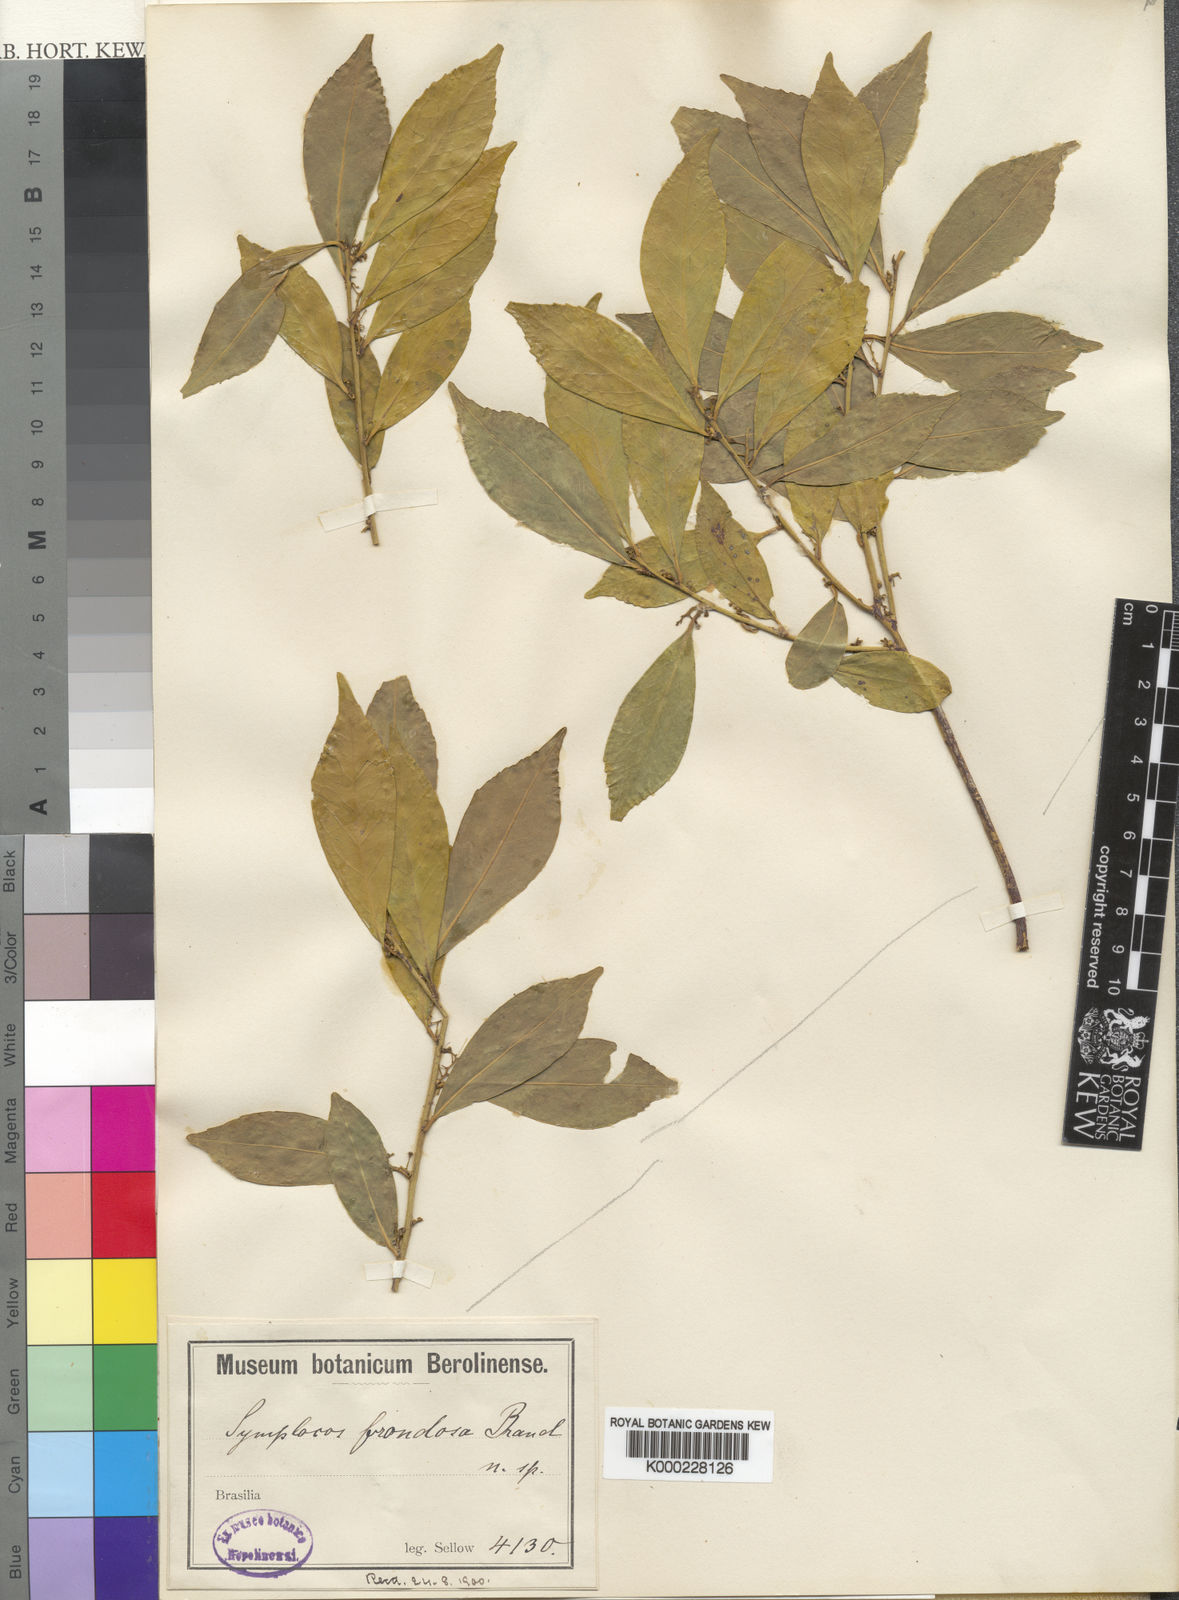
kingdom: Plantae
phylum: Tracheophyta
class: Magnoliopsida
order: Ericales
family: Symplocaceae
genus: Symplocos
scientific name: Symplocos tetrandra
